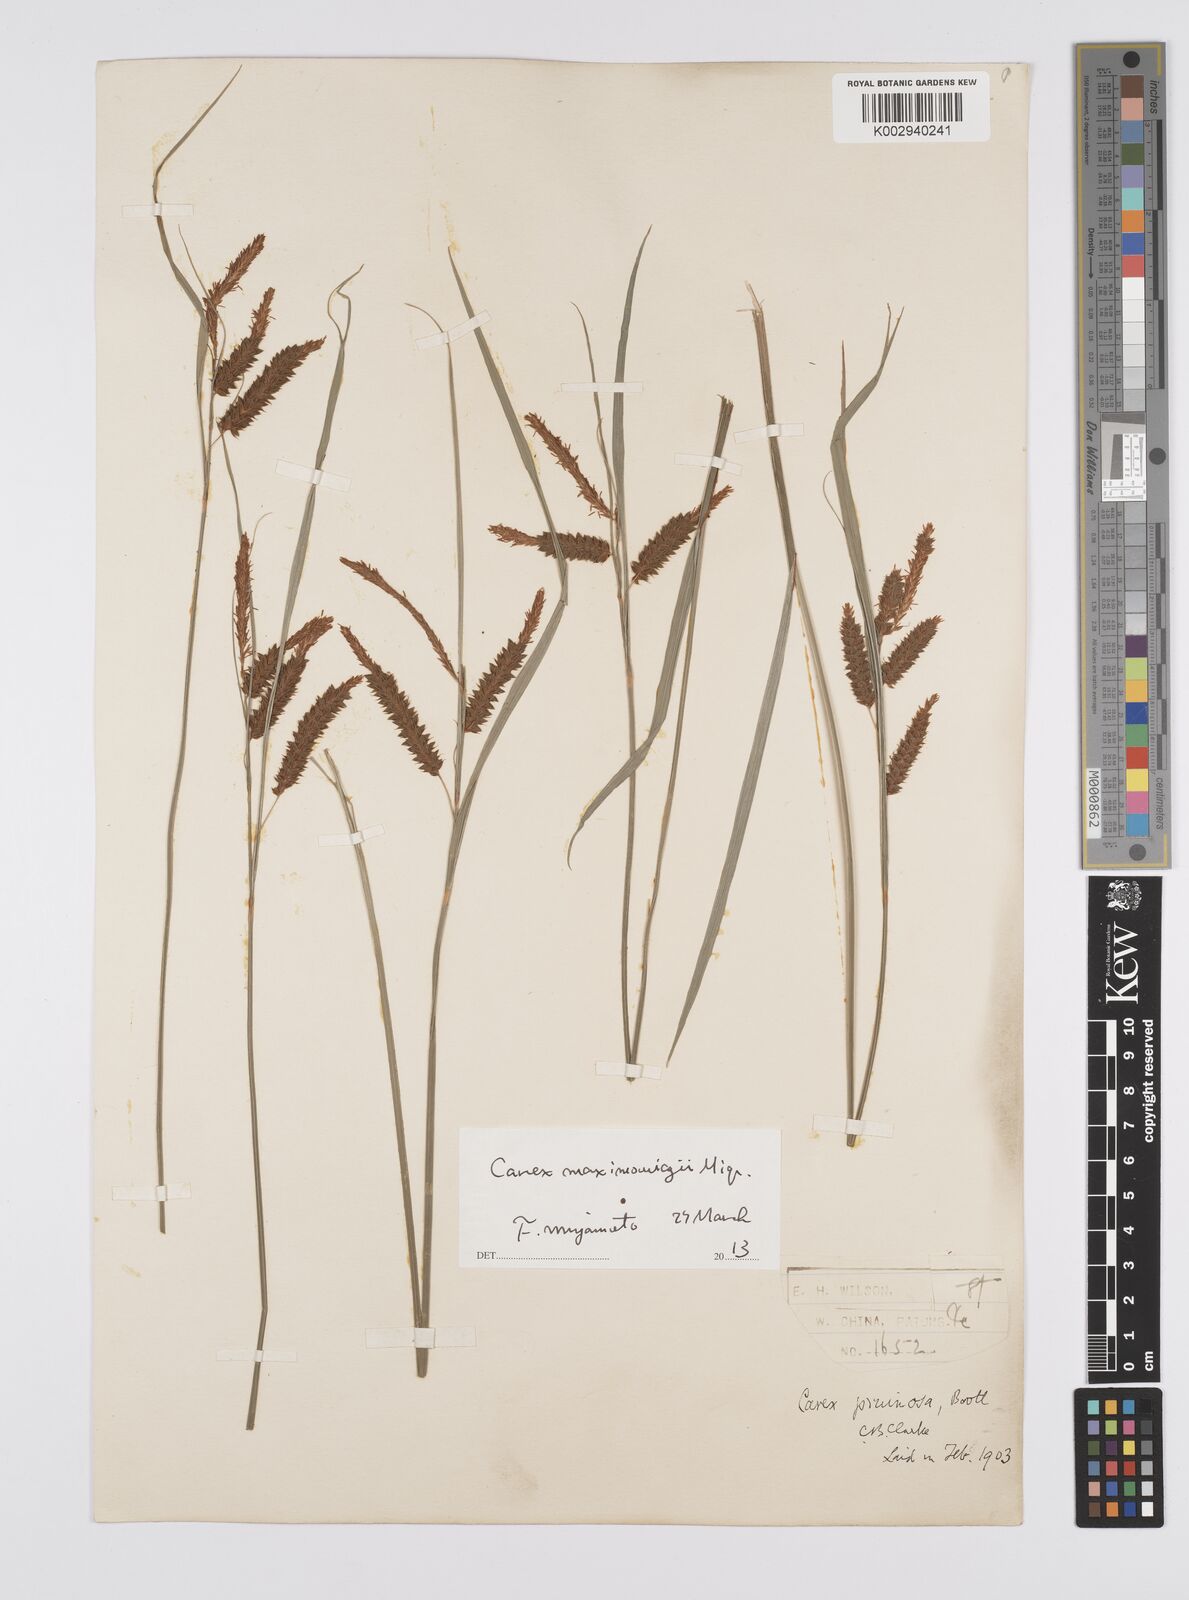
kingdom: Plantae
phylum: Tracheophyta
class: Liliopsida
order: Poales
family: Cyperaceae
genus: Carex
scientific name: Carex pruinosa
